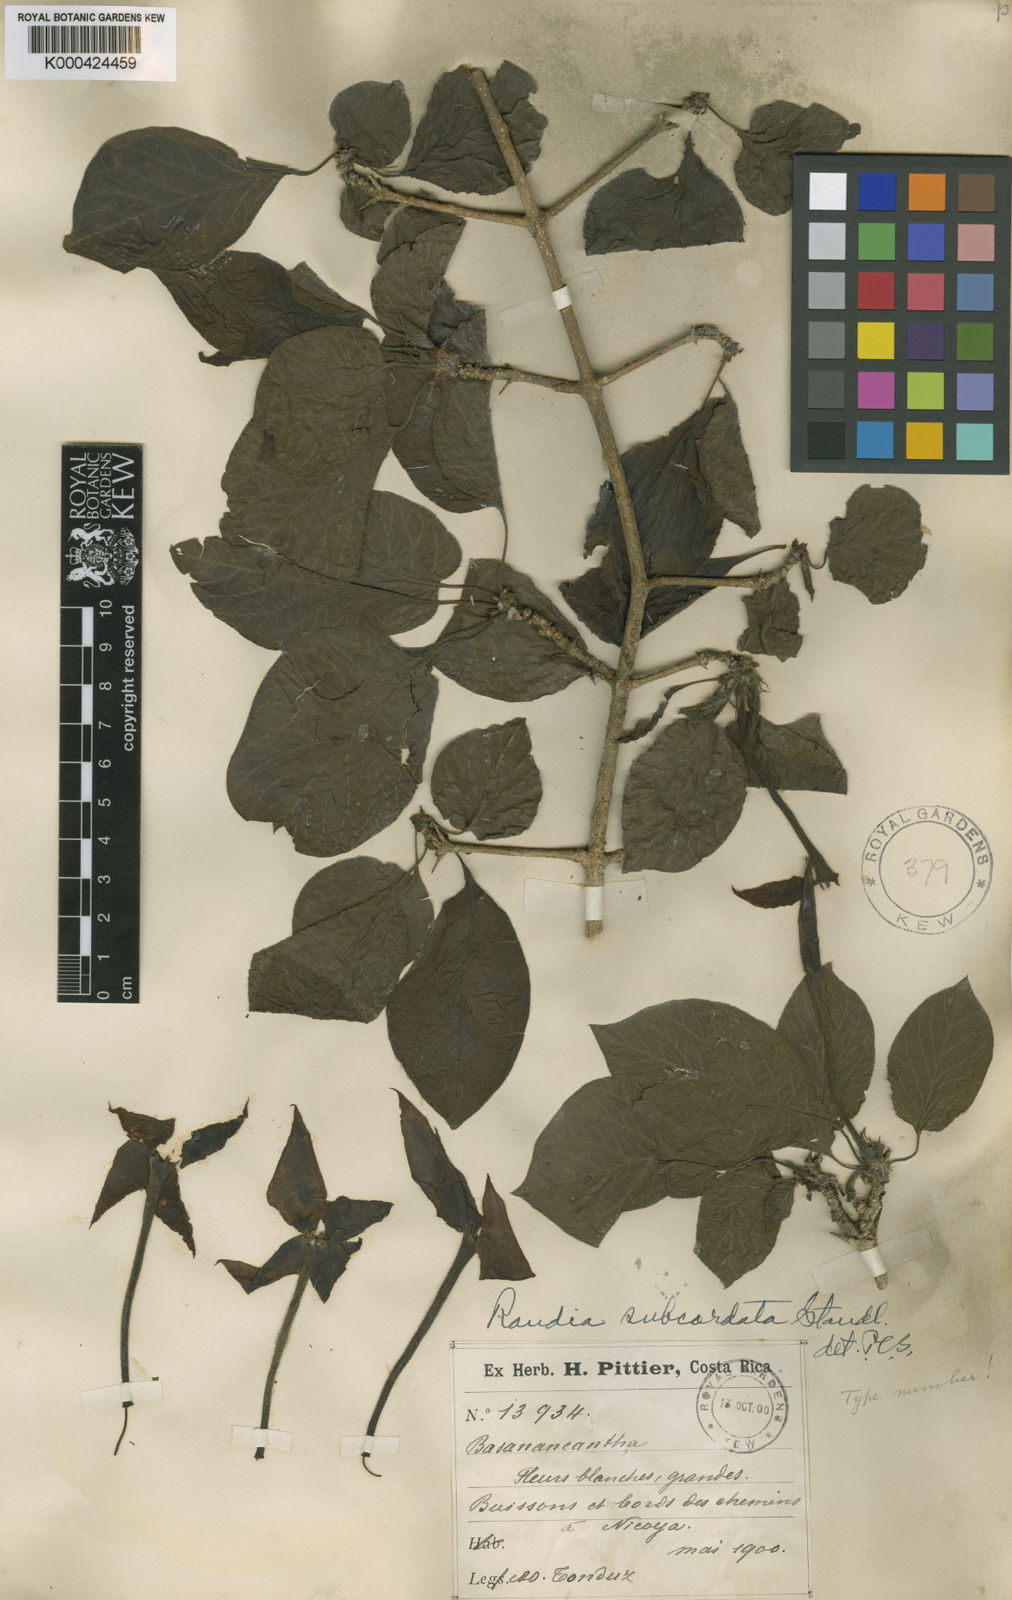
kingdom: Plantae
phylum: Tracheophyta
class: Magnoliopsida
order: Gentianales
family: Rubiaceae
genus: Randia
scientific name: Randia monantha
